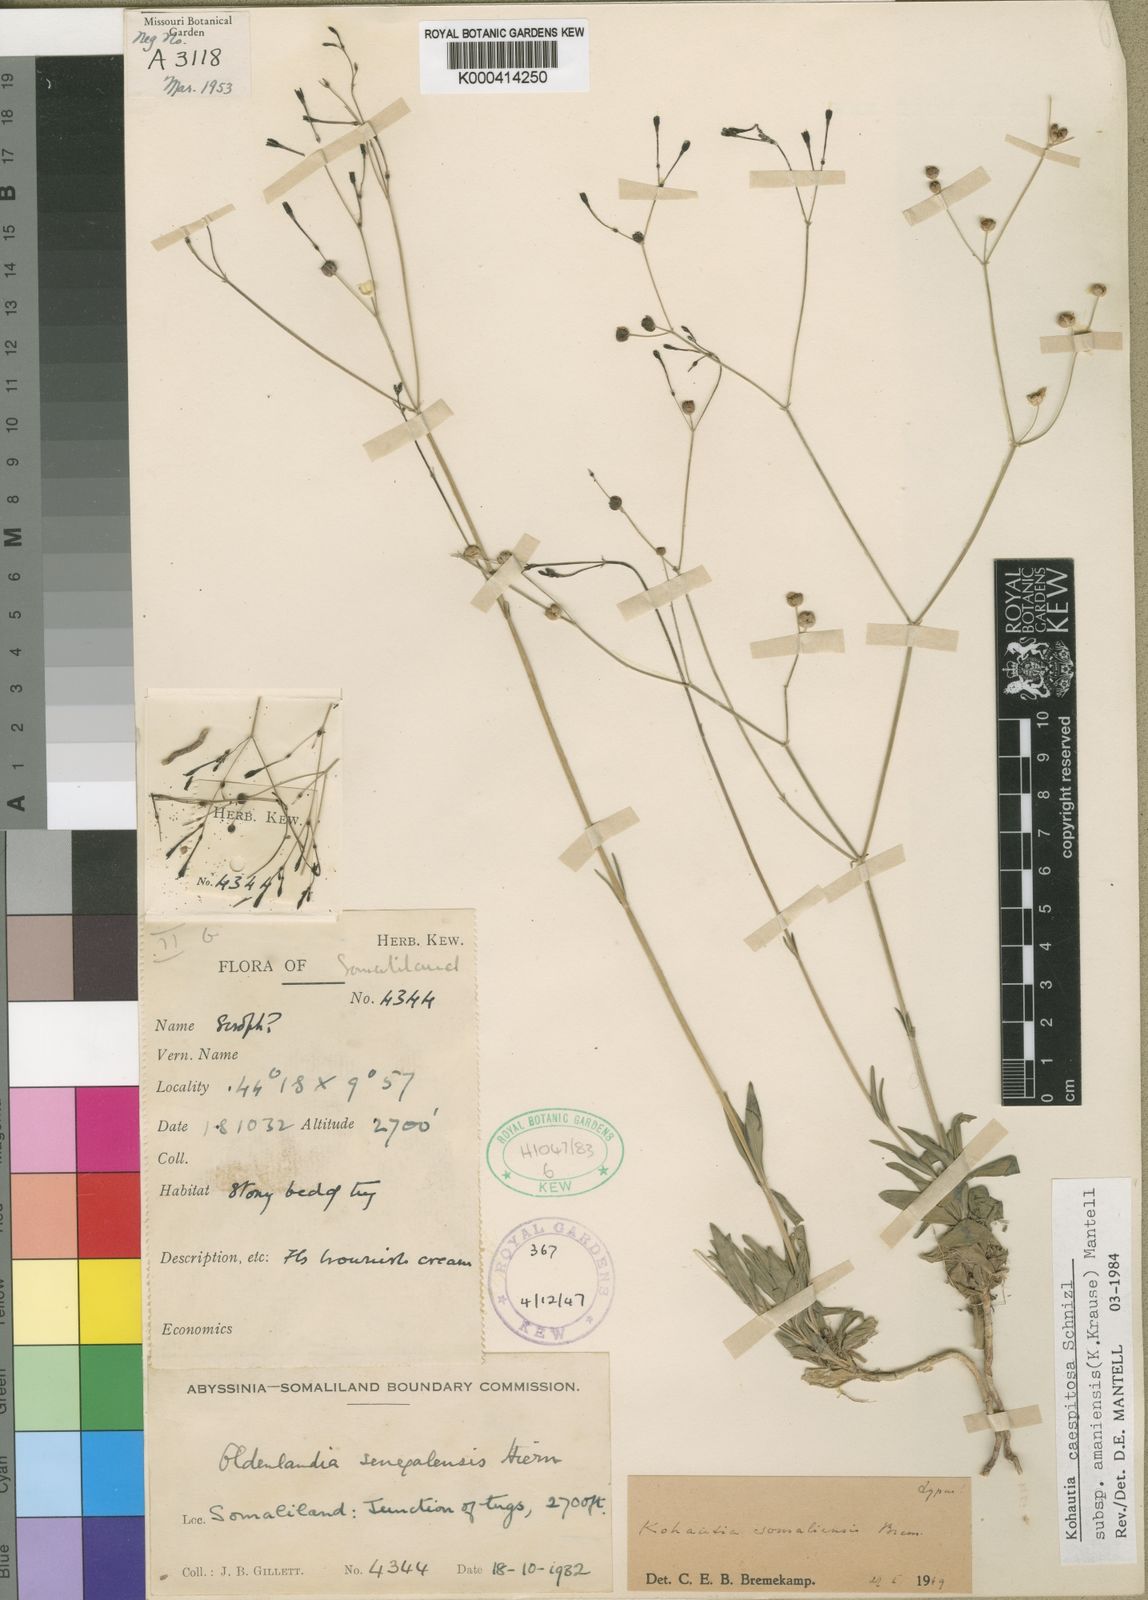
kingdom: Plantae
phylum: Tracheophyta
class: Magnoliopsida
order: Gentianales
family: Rubiaceae
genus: Kohautia
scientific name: Kohautia caespitosa
